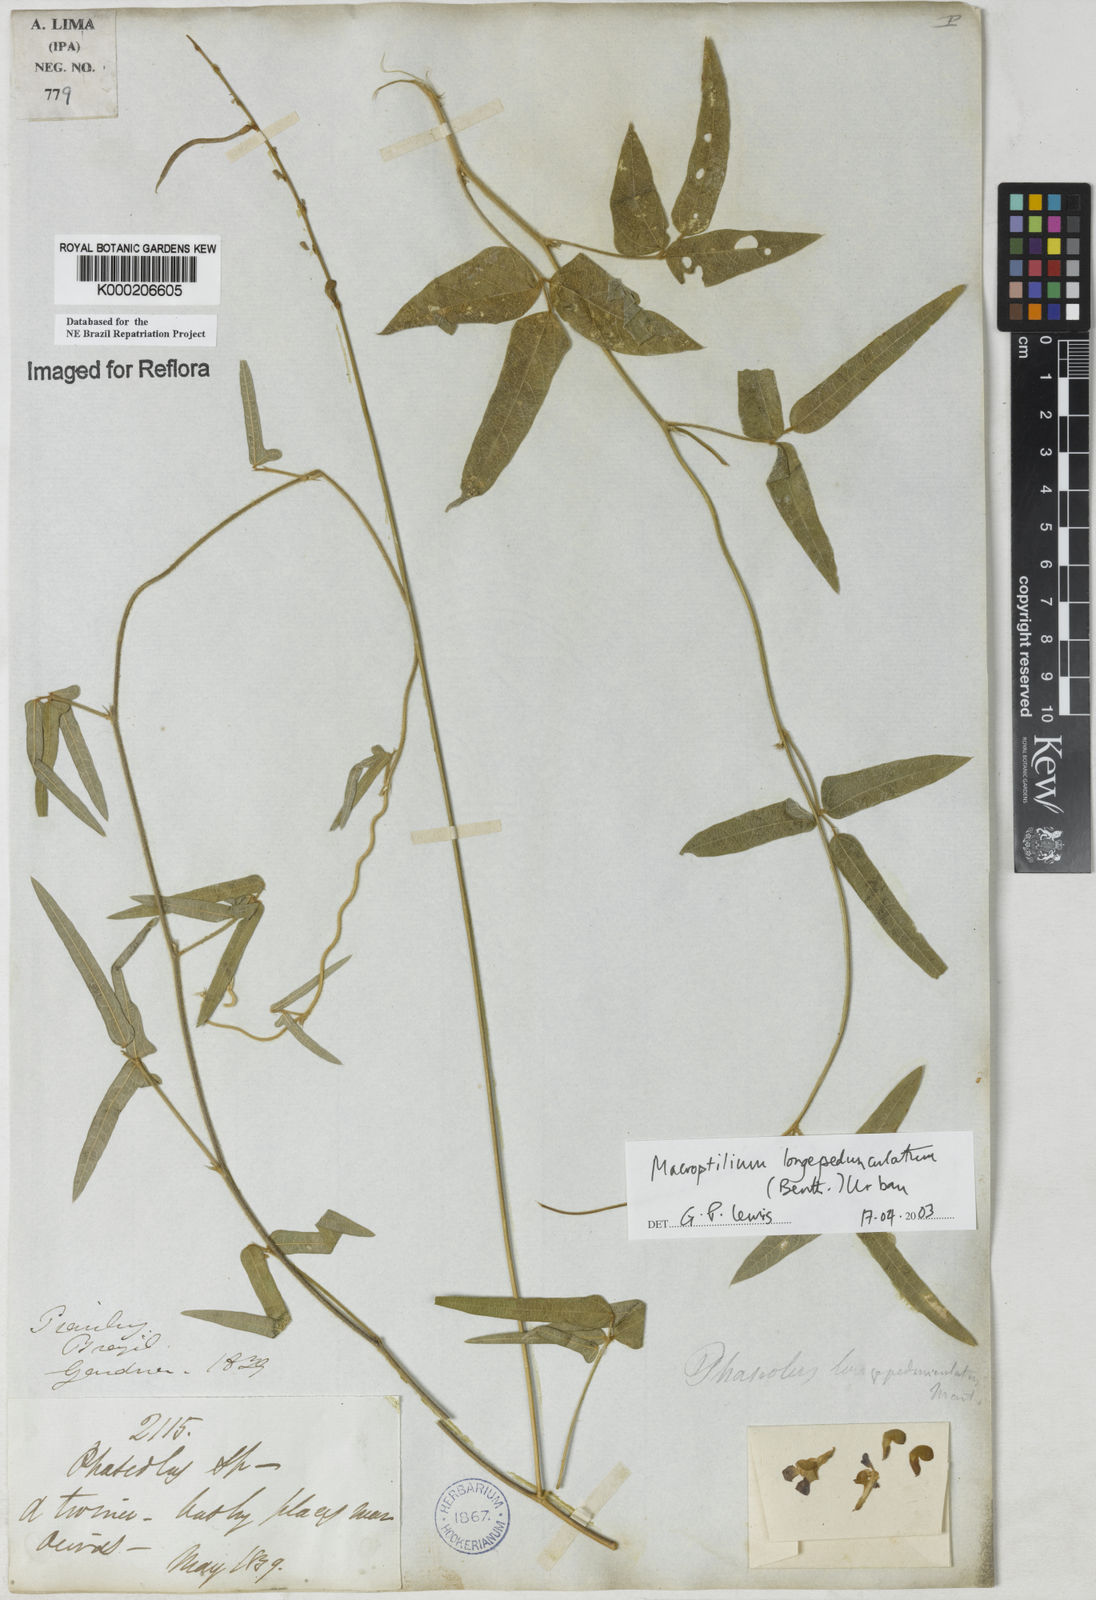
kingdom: Plantae
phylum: Tracheophyta
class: Magnoliopsida
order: Fabales
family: Fabaceae
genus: Macroptilium
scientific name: Macroptilium gracile
